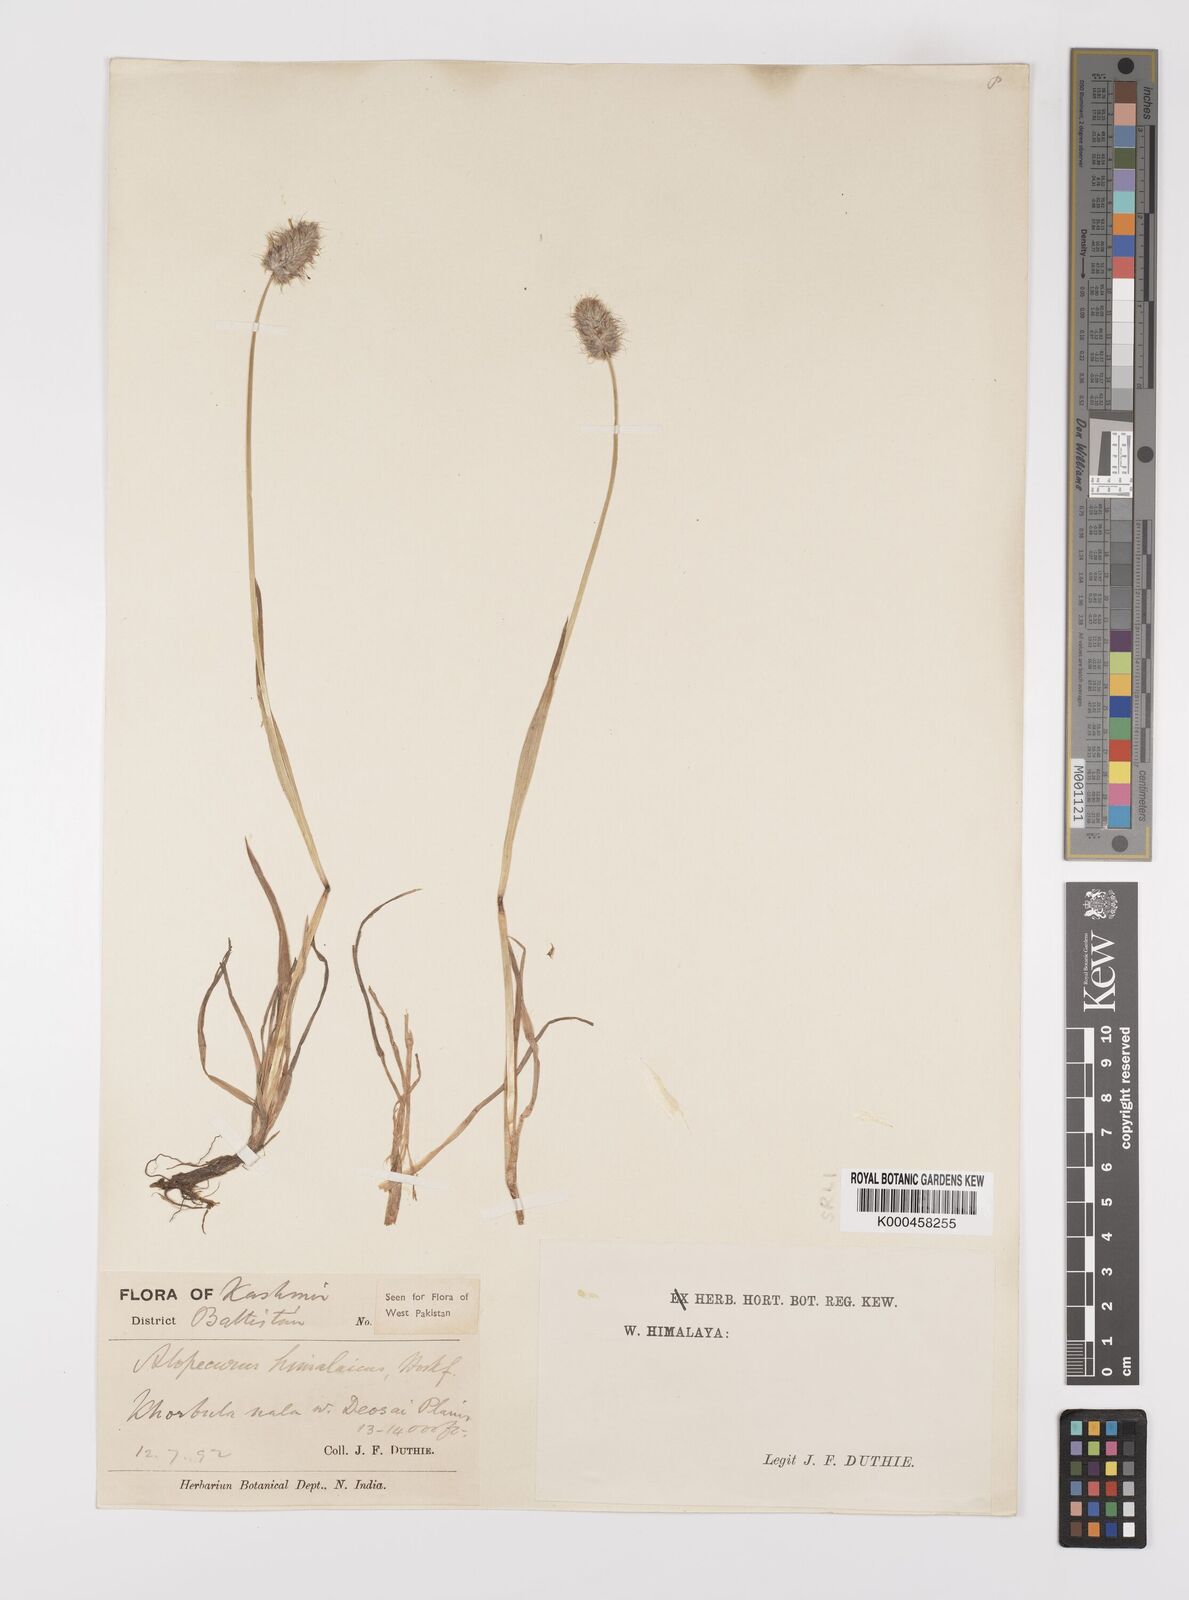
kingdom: Plantae
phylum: Tracheophyta
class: Liliopsida
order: Poales
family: Poaceae
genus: Alopecurus
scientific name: Alopecurus himalaicus
